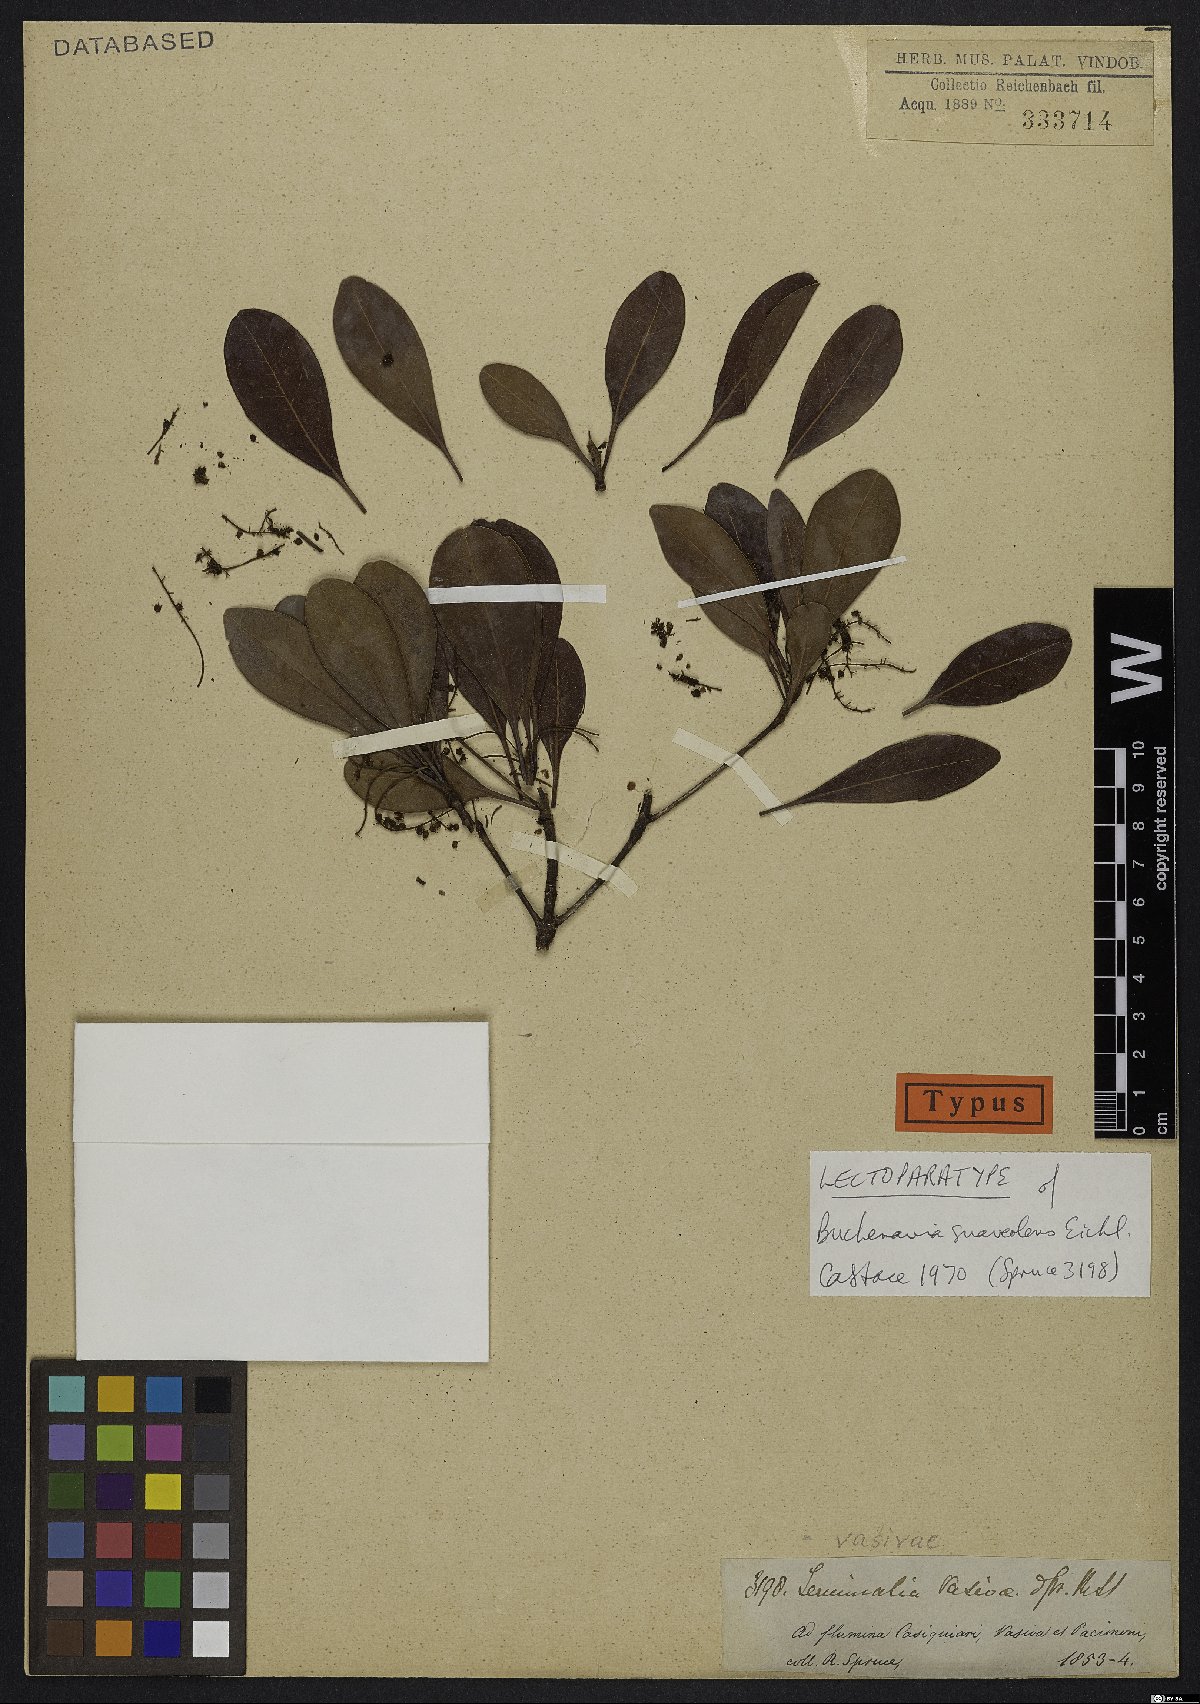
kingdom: Plantae
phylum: Tracheophyta
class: Magnoliopsida
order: Myrtales
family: Combretaceae
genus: Terminalia
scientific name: Terminalia suaveolens
